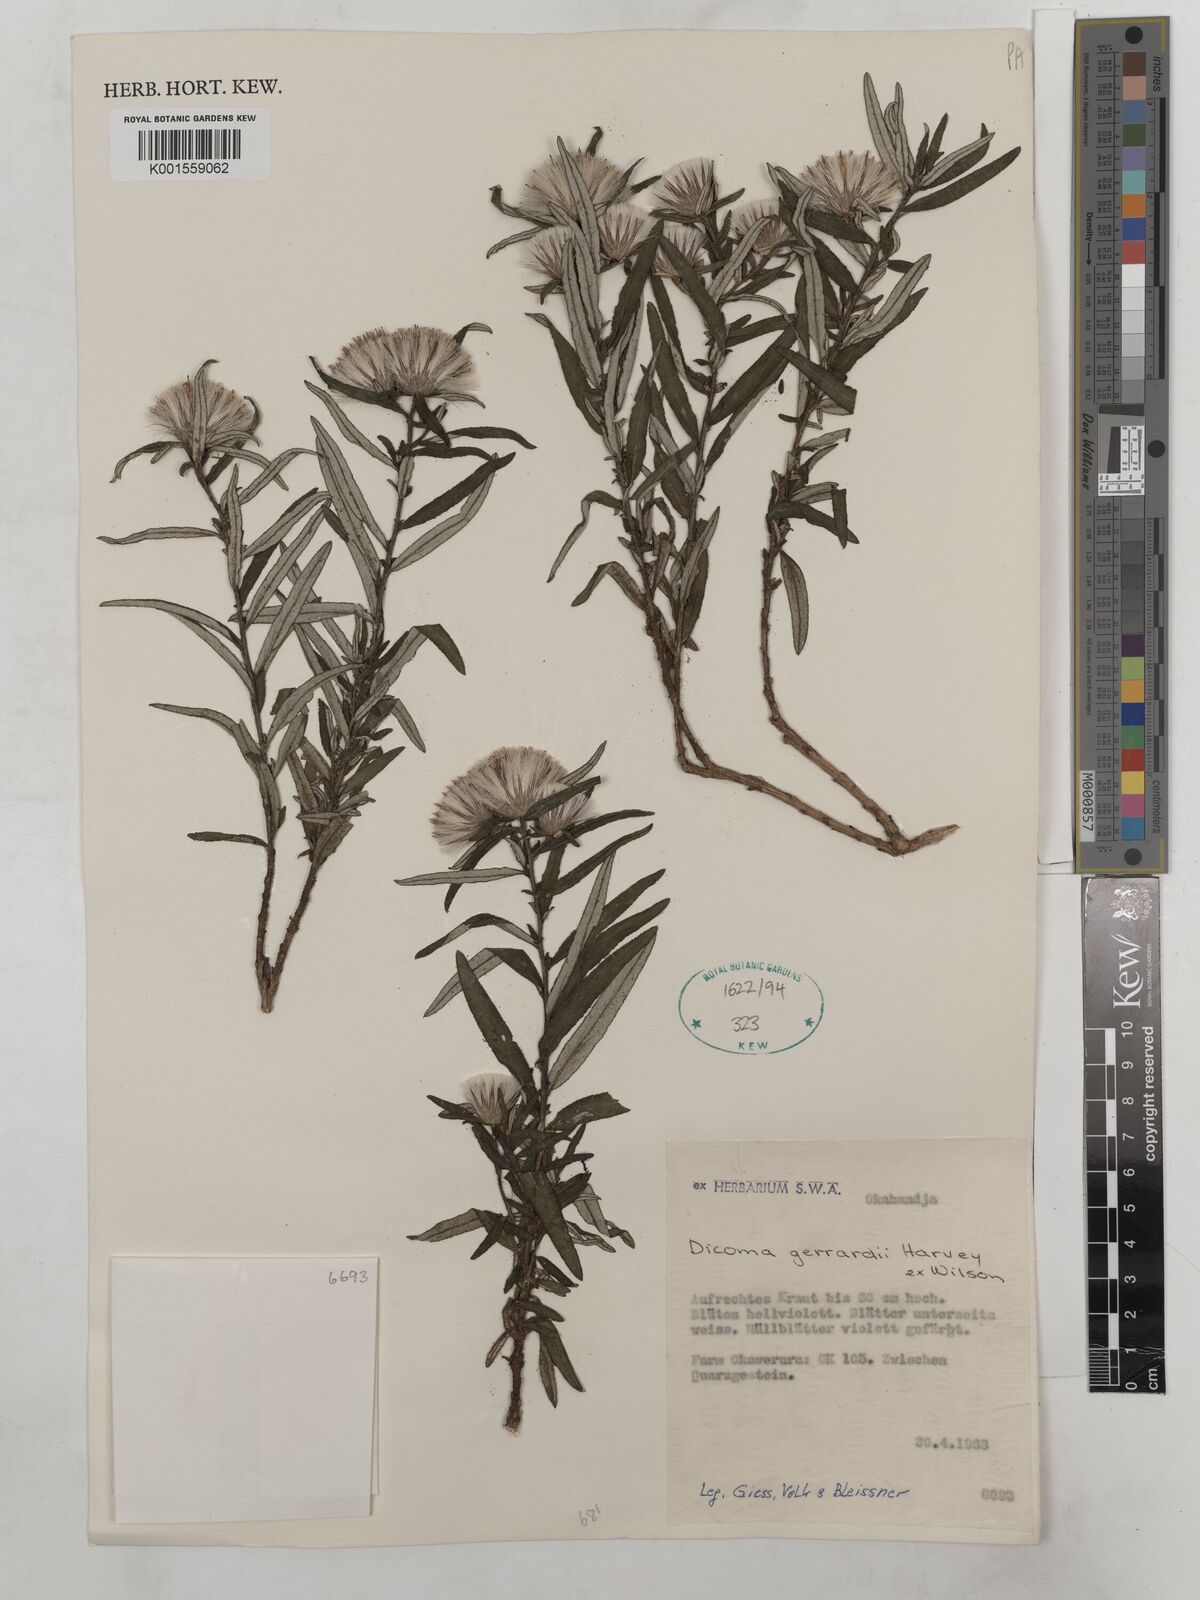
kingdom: Plantae
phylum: Tracheophyta
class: Magnoliopsida
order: Asterales
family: Asteraceae
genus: Dicoma
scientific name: Dicoma anomala
